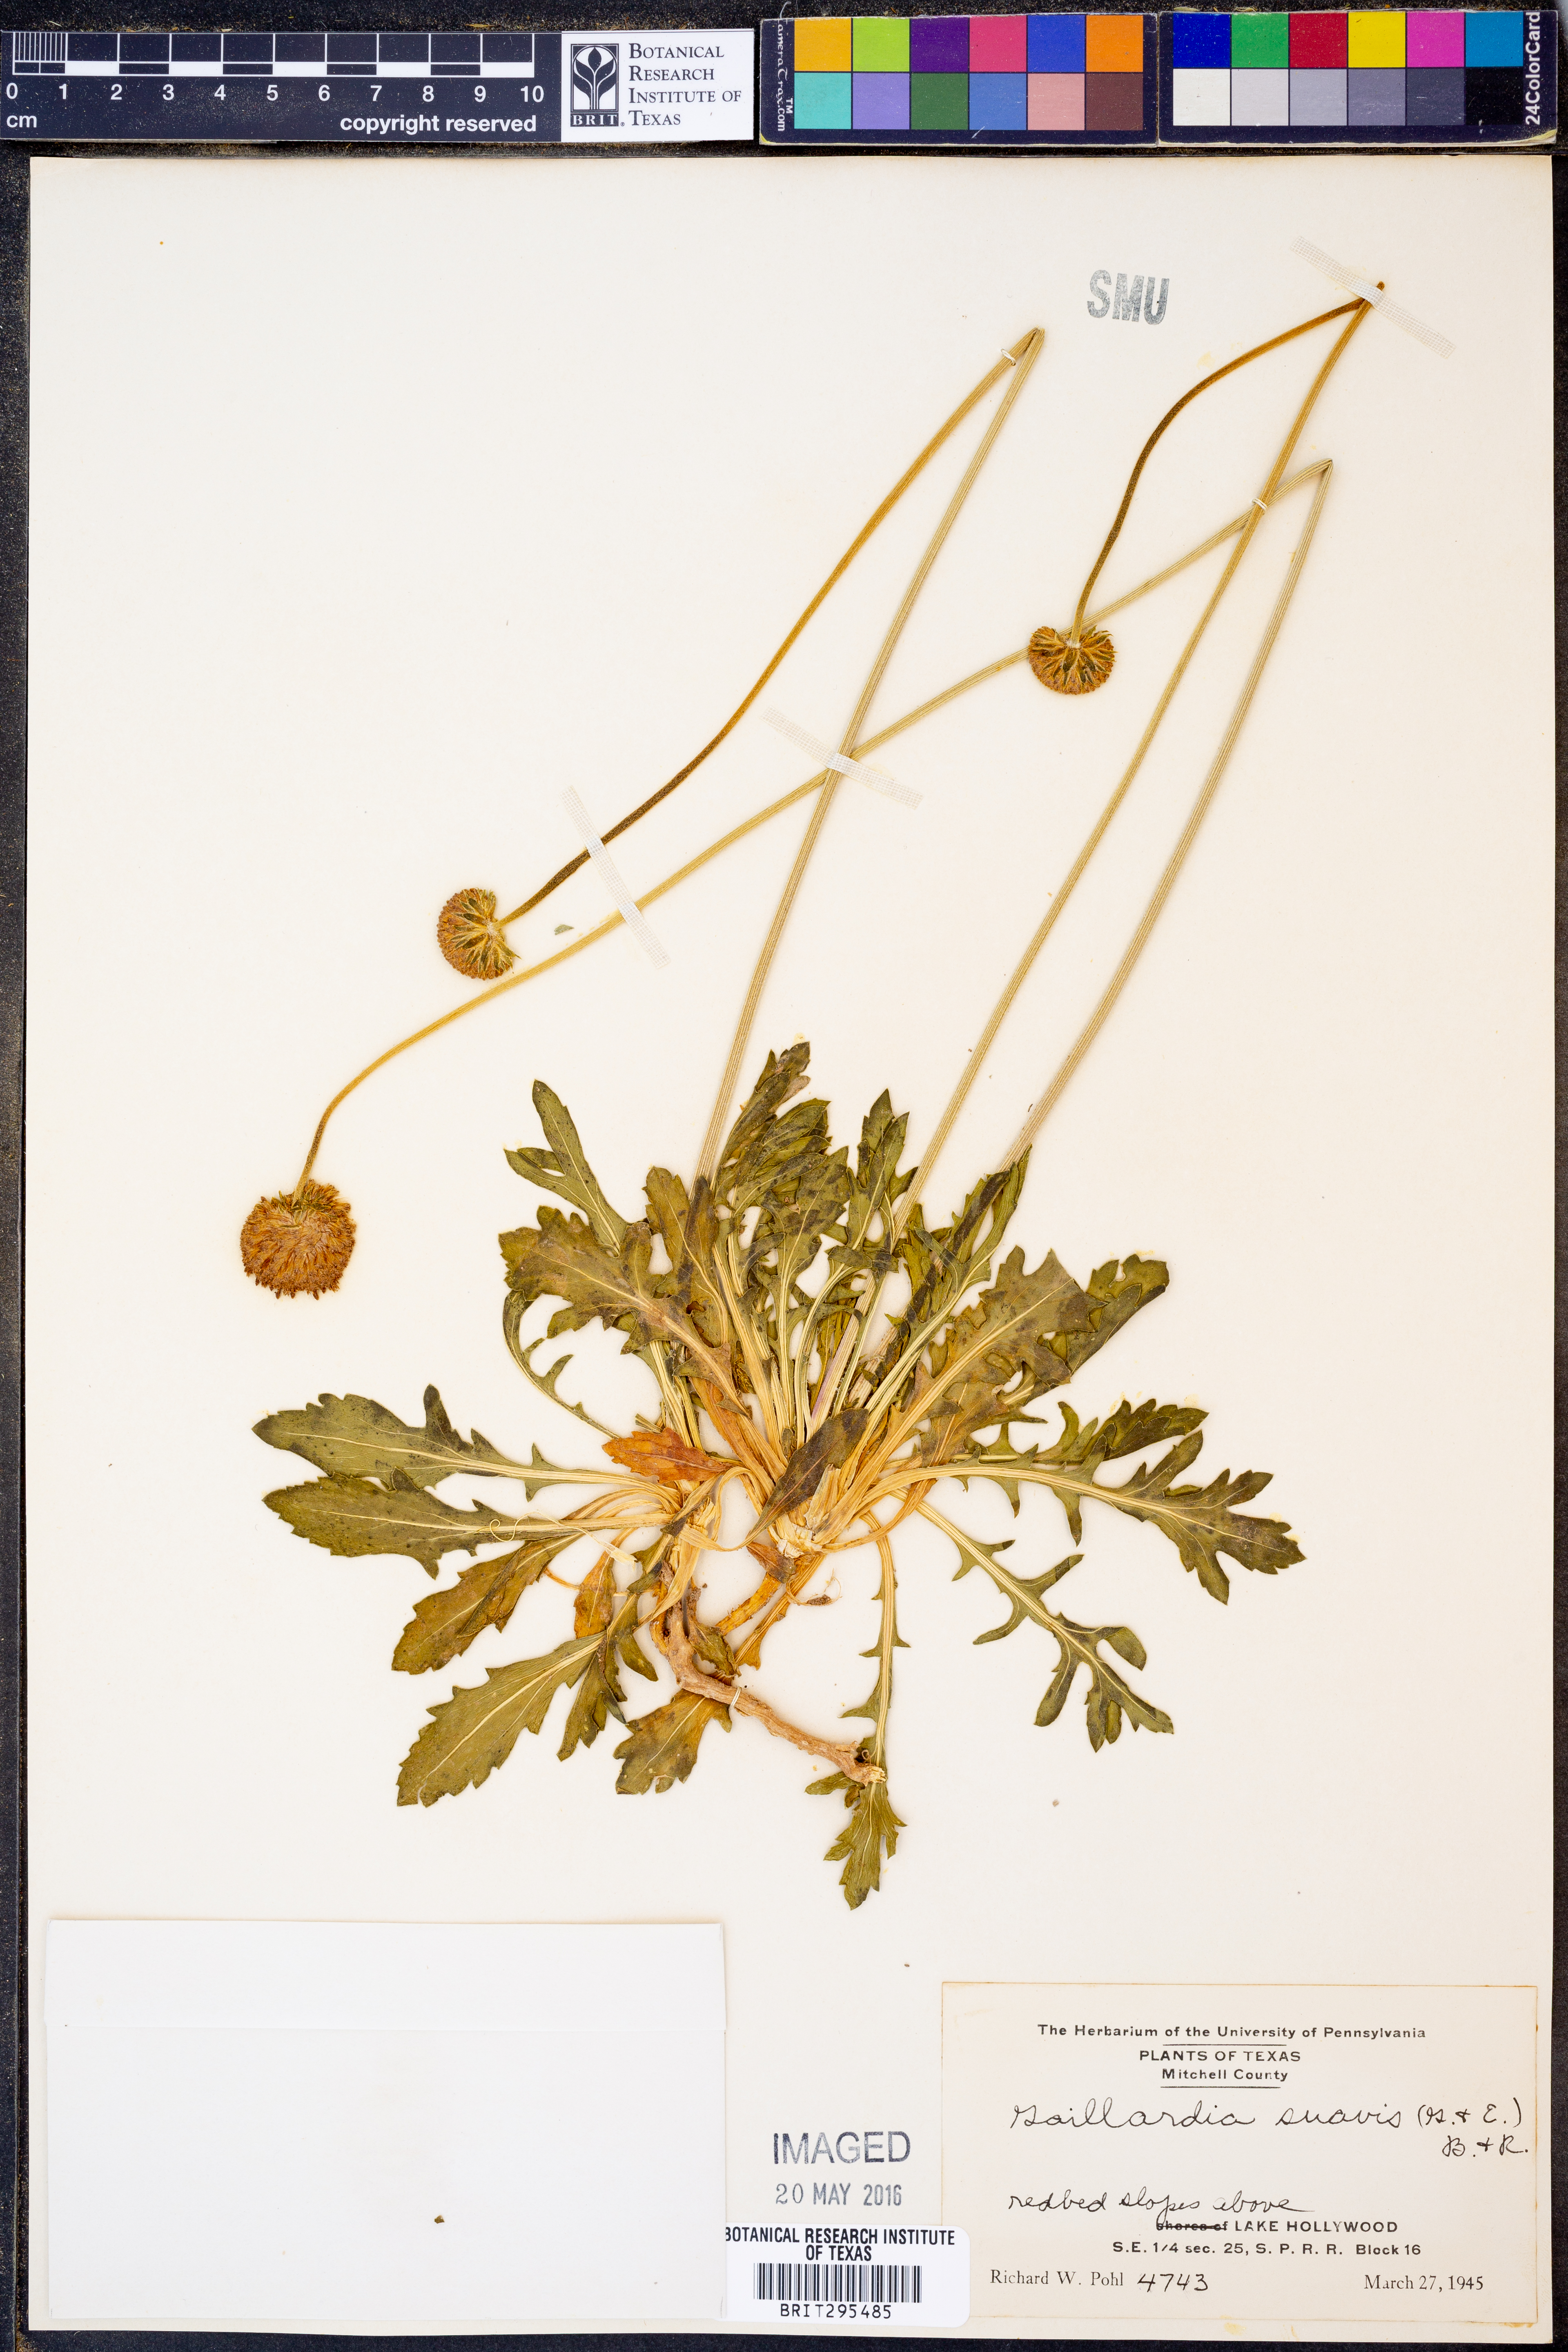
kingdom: Plantae
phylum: Tracheophyta
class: Magnoliopsida
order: Asterales
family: Asteraceae
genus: Gaillardia
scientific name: Gaillardia suavis
